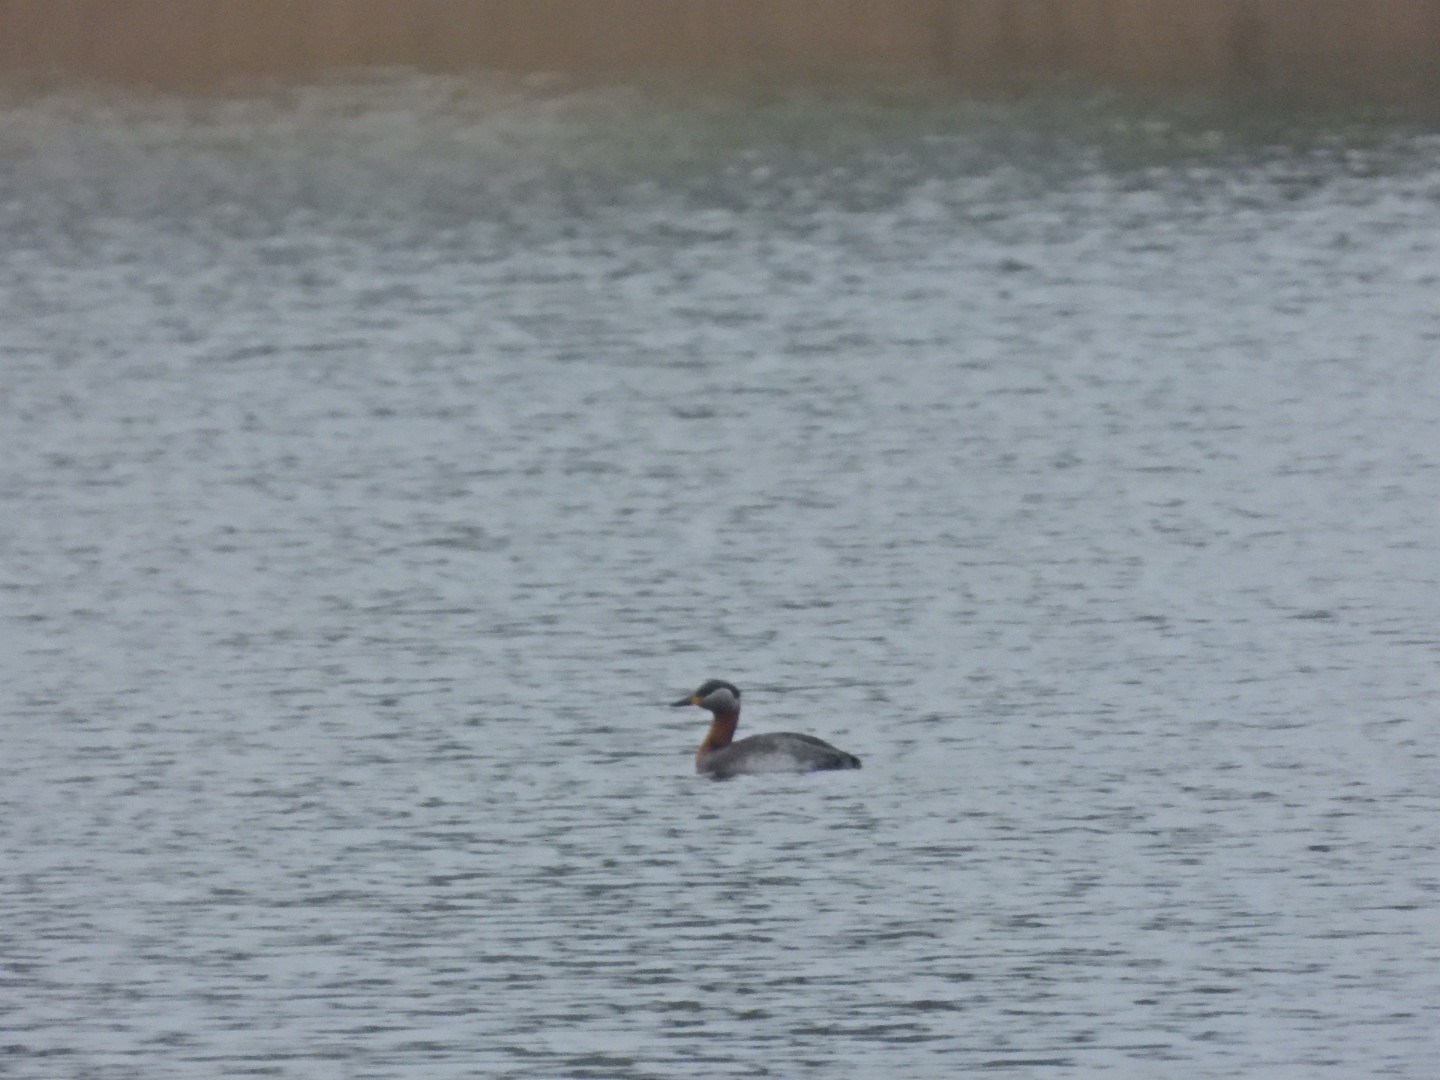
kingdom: Animalia
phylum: Chordata
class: Aves
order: Podicipediformes
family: Podicipedidae
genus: Podiceps
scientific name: Podiceps grisegena
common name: Gråstrubet lappedykker
